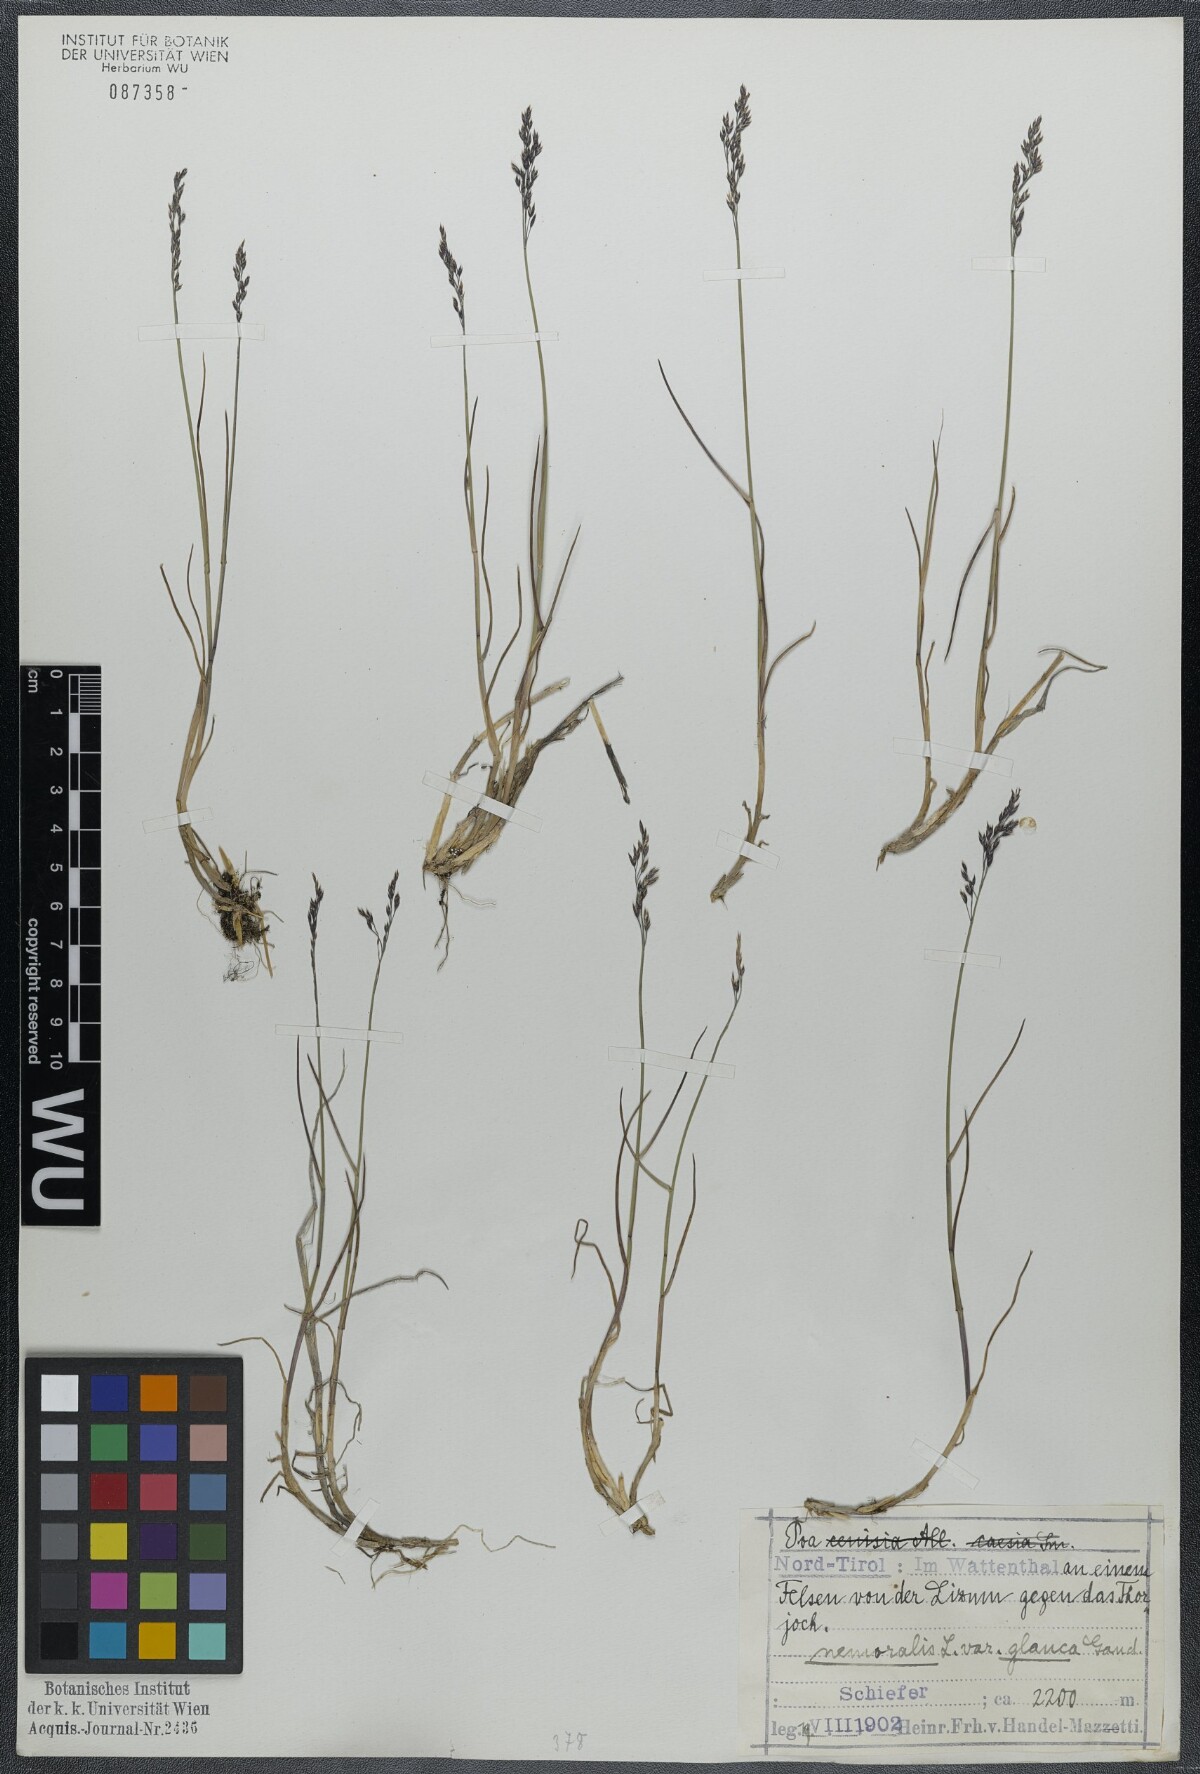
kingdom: Plantae
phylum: Tracheophyta
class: Liliopsida
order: Poales
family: Poaceae
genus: Poa
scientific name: Poa glauca
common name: Glaucous bluegrass
